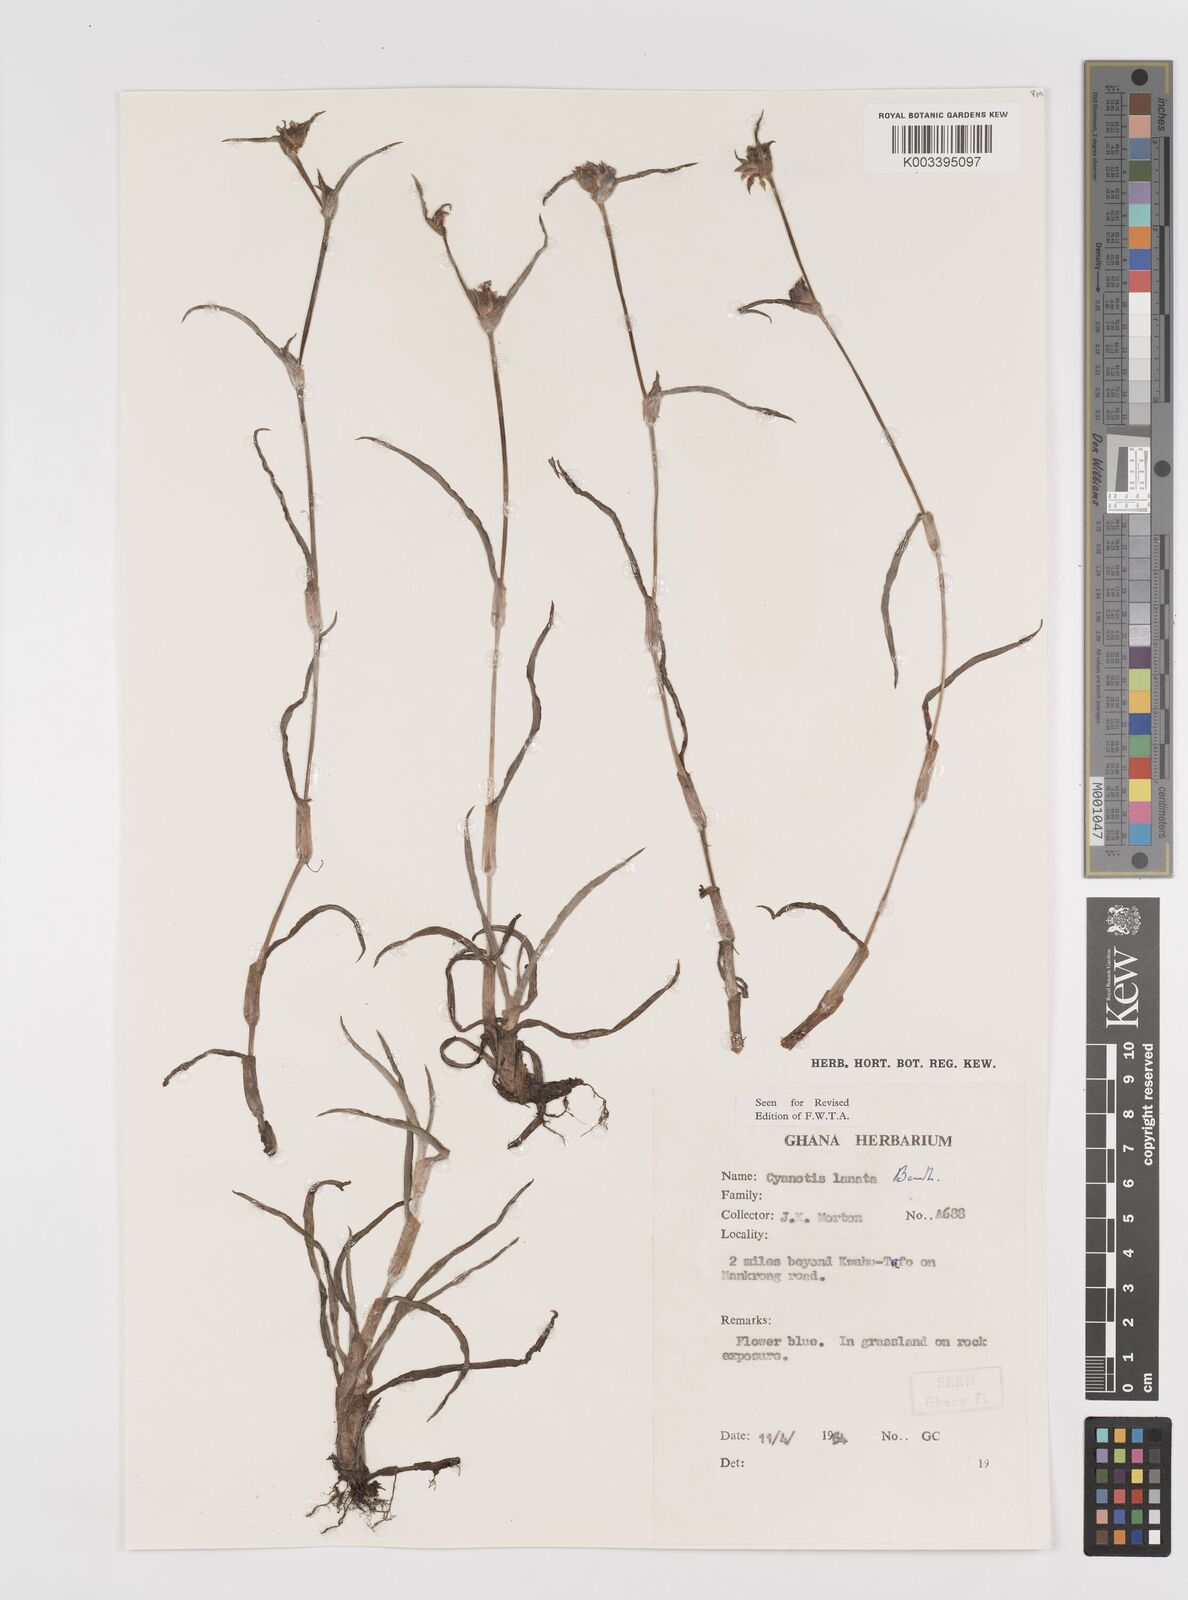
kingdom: Plantae
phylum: Tracheophyta
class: Liliopsida
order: Commelinales
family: Commelinaceae
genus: Cyanotis
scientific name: Cyanotis lanata
